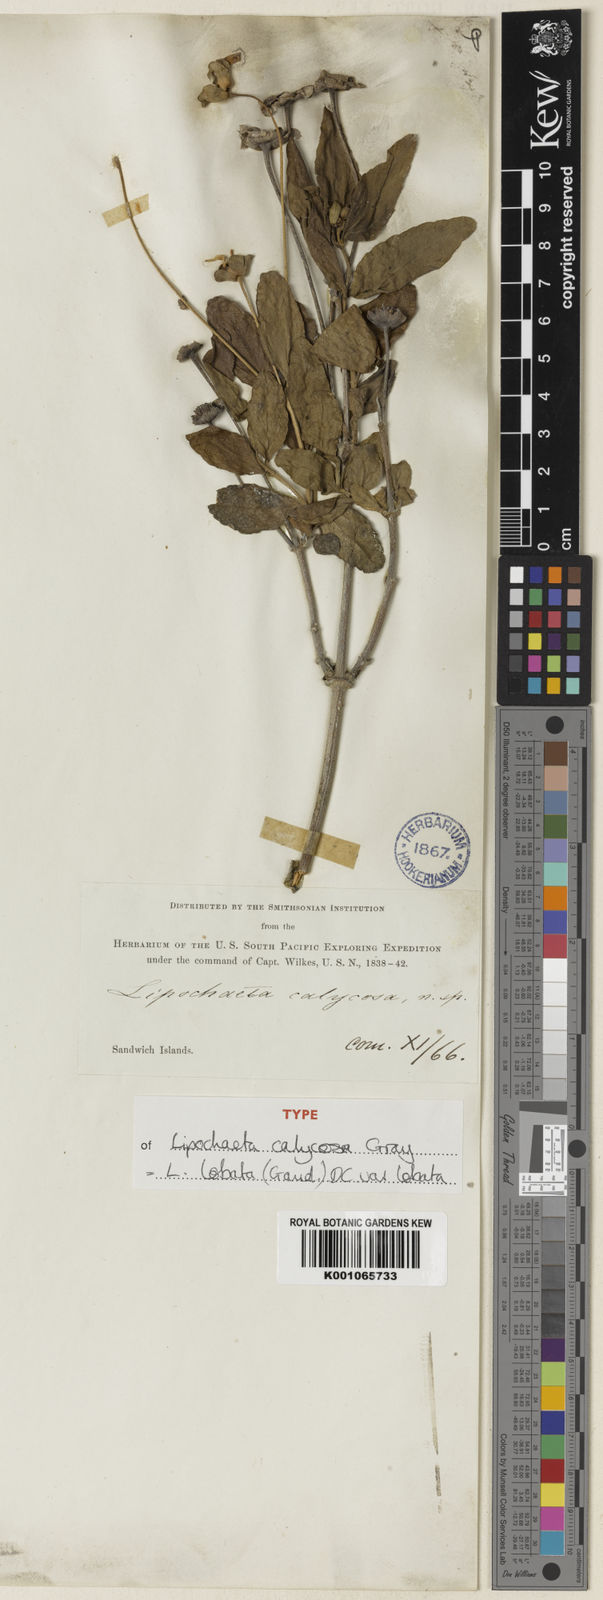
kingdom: Plantae
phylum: Tracheophyta
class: Magnoliopsida
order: Asterales
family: Asteraceae
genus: Lipochaeta
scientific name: Lipochaeta lobata
